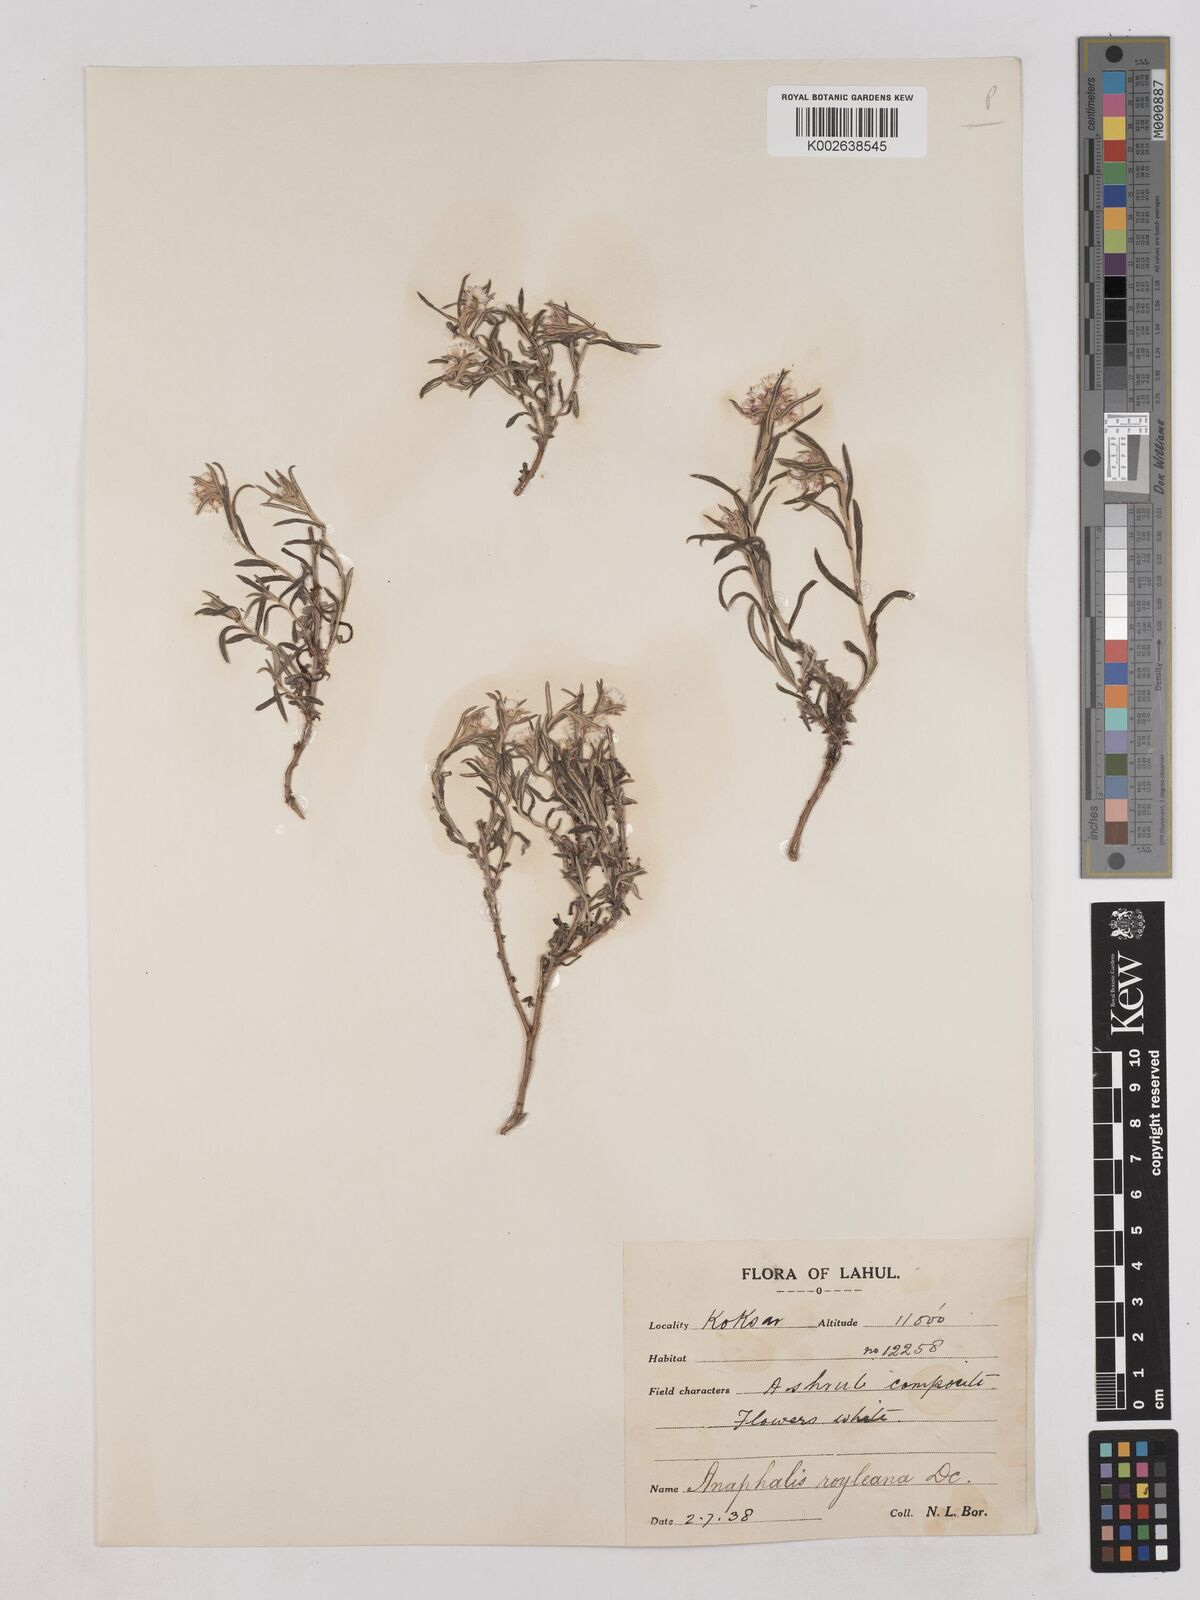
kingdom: Plantae
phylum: Tracheophyta
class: Magnoliopsida
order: Asterales
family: Asteraceae
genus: Anaphalis
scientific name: Anaphalis royleana
